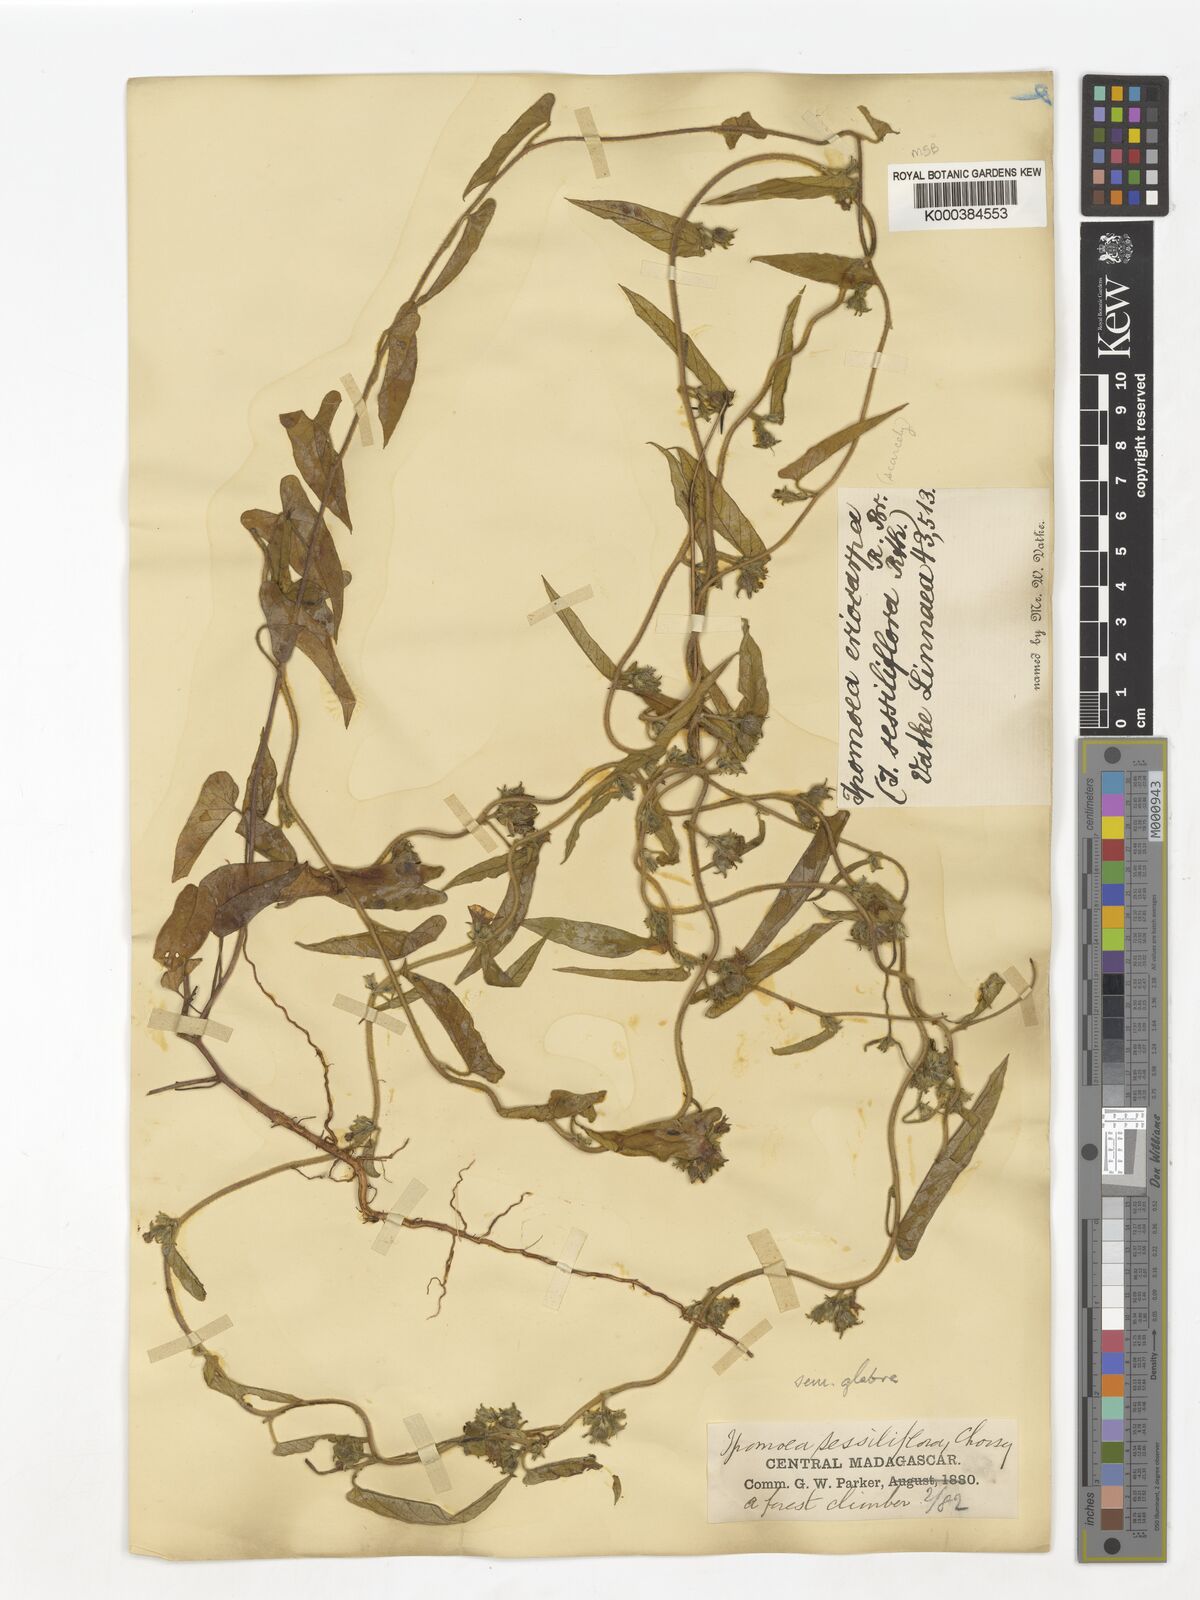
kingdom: Plantae
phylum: Tracheophyta
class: Magnoliopsida
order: Solanales
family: Convolvulaceae
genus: Ipomoea
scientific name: Ipomoea eriocarpa
